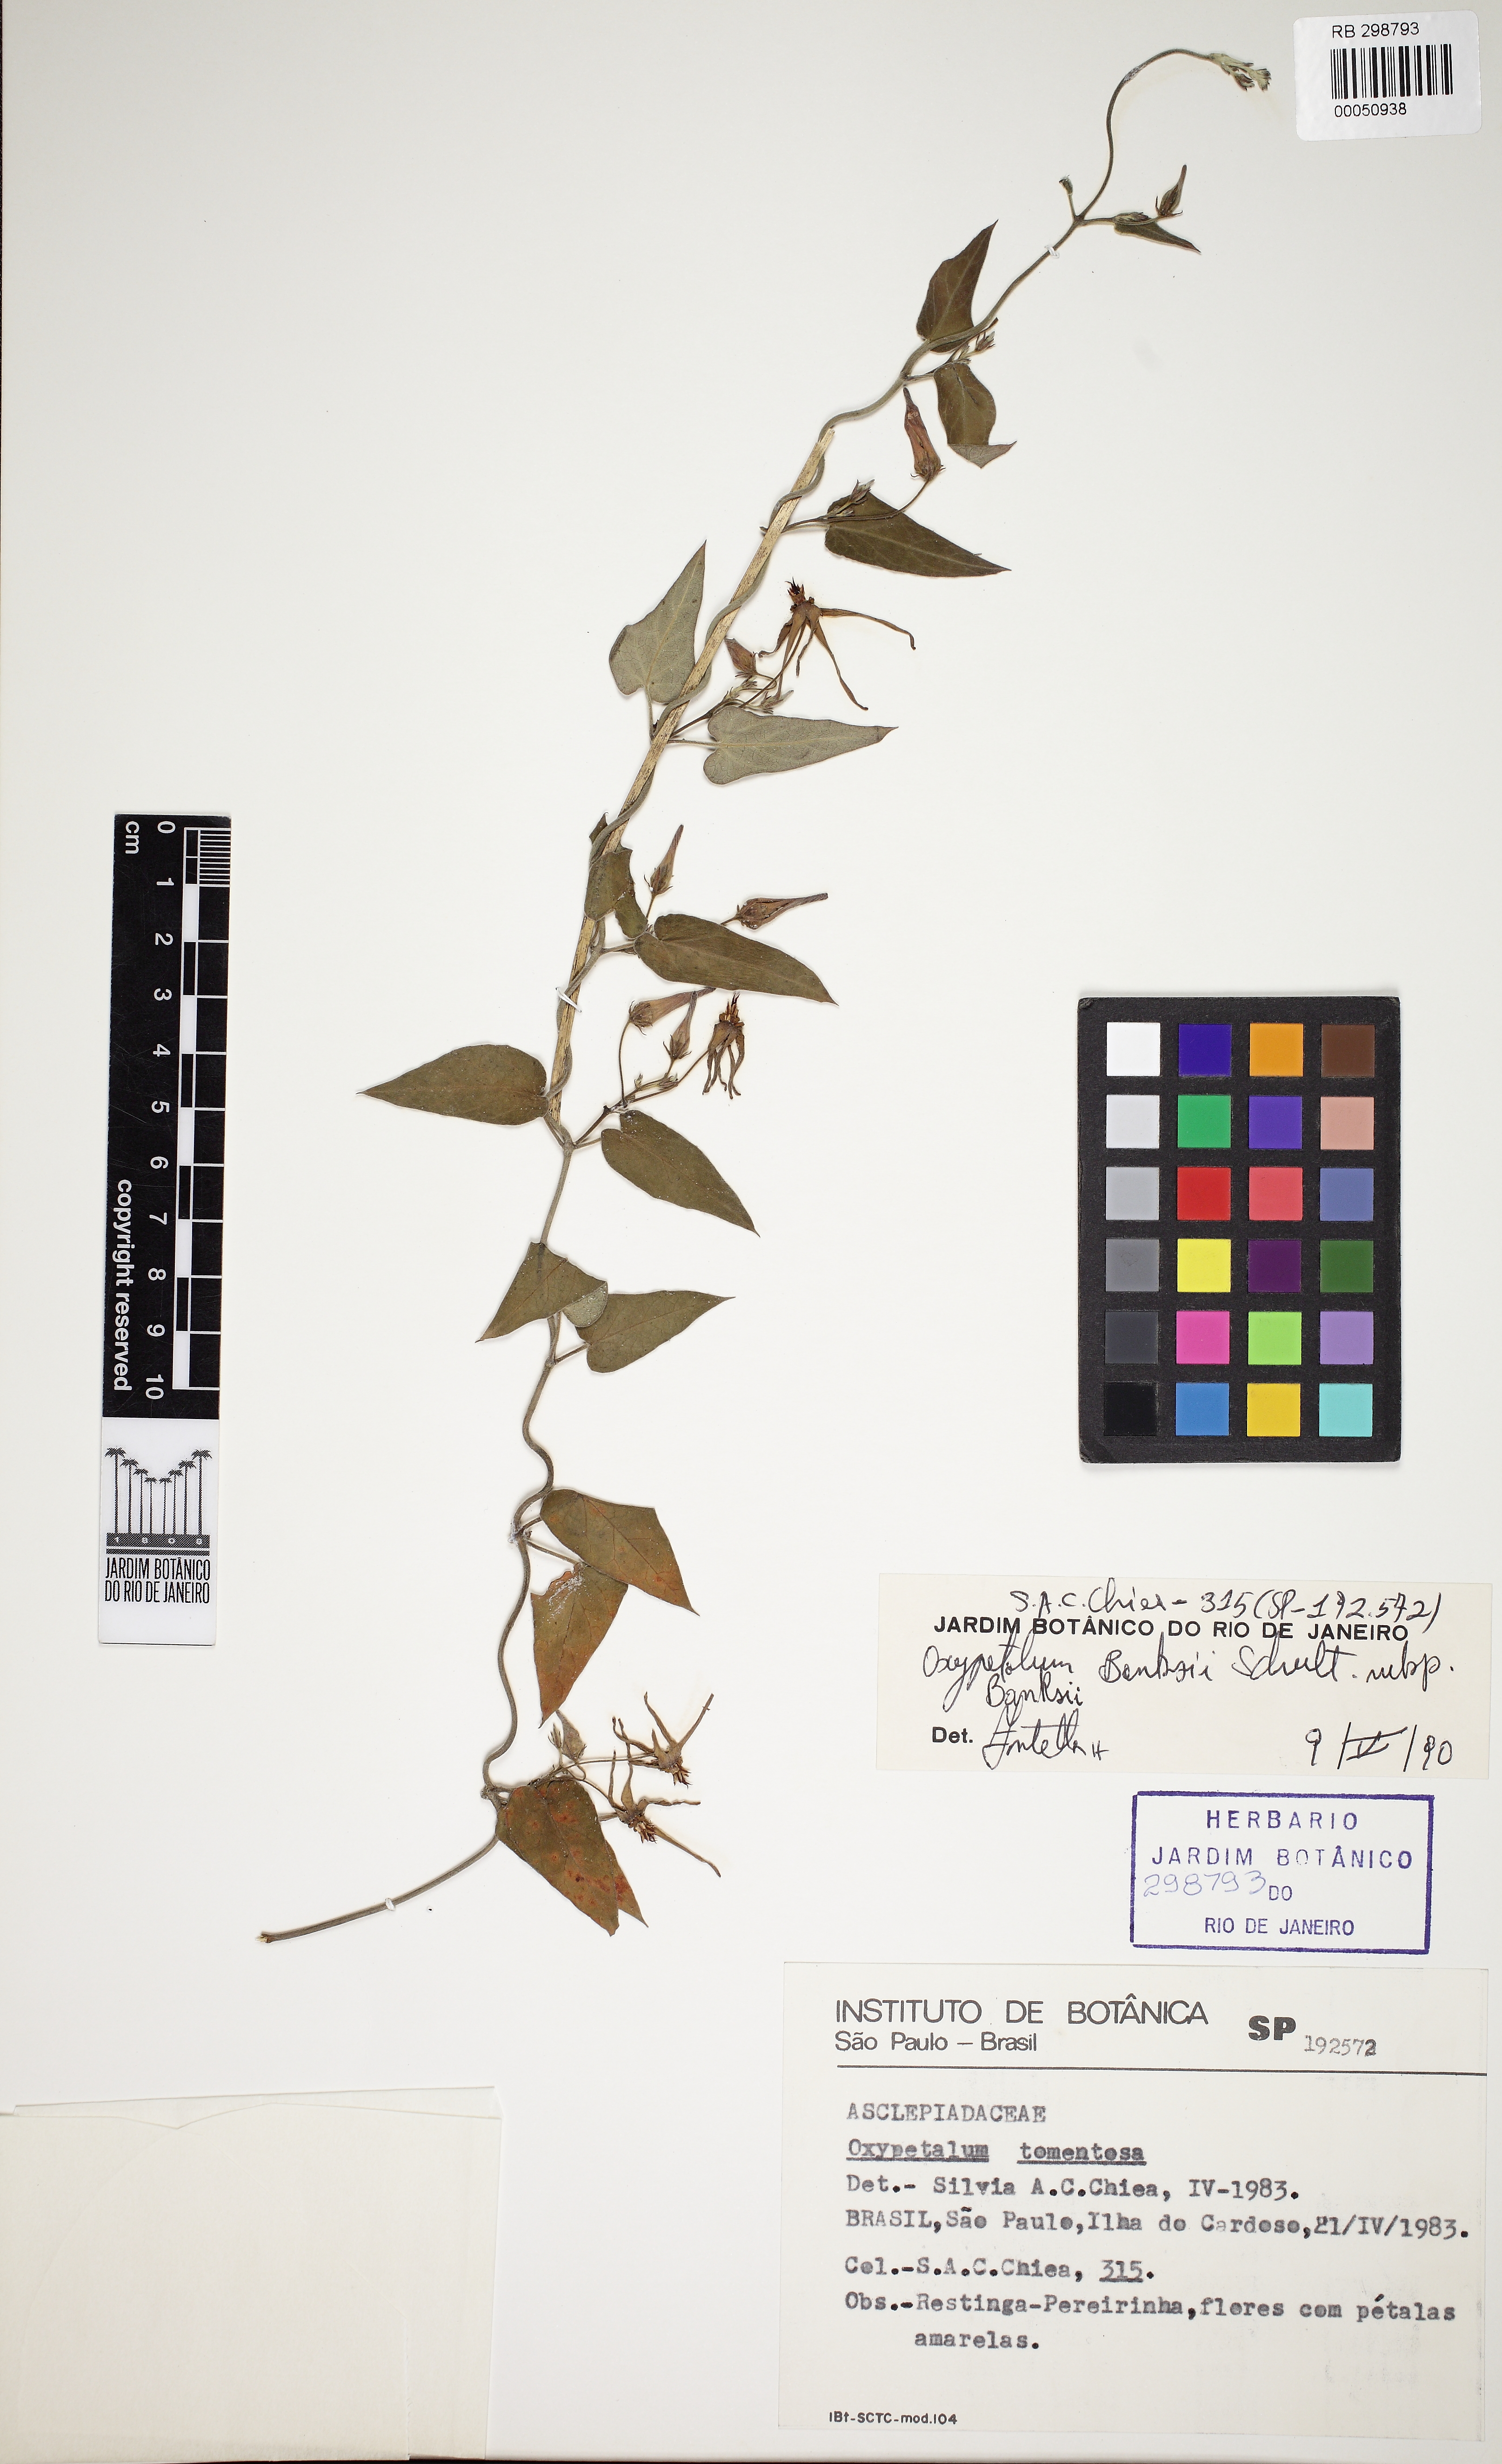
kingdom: Plantae
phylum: Tracheophyta
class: Magnoliopsida
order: Gentianales
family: Apocynaceae
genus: Oxypetalum
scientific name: Oxypetalum banksii
